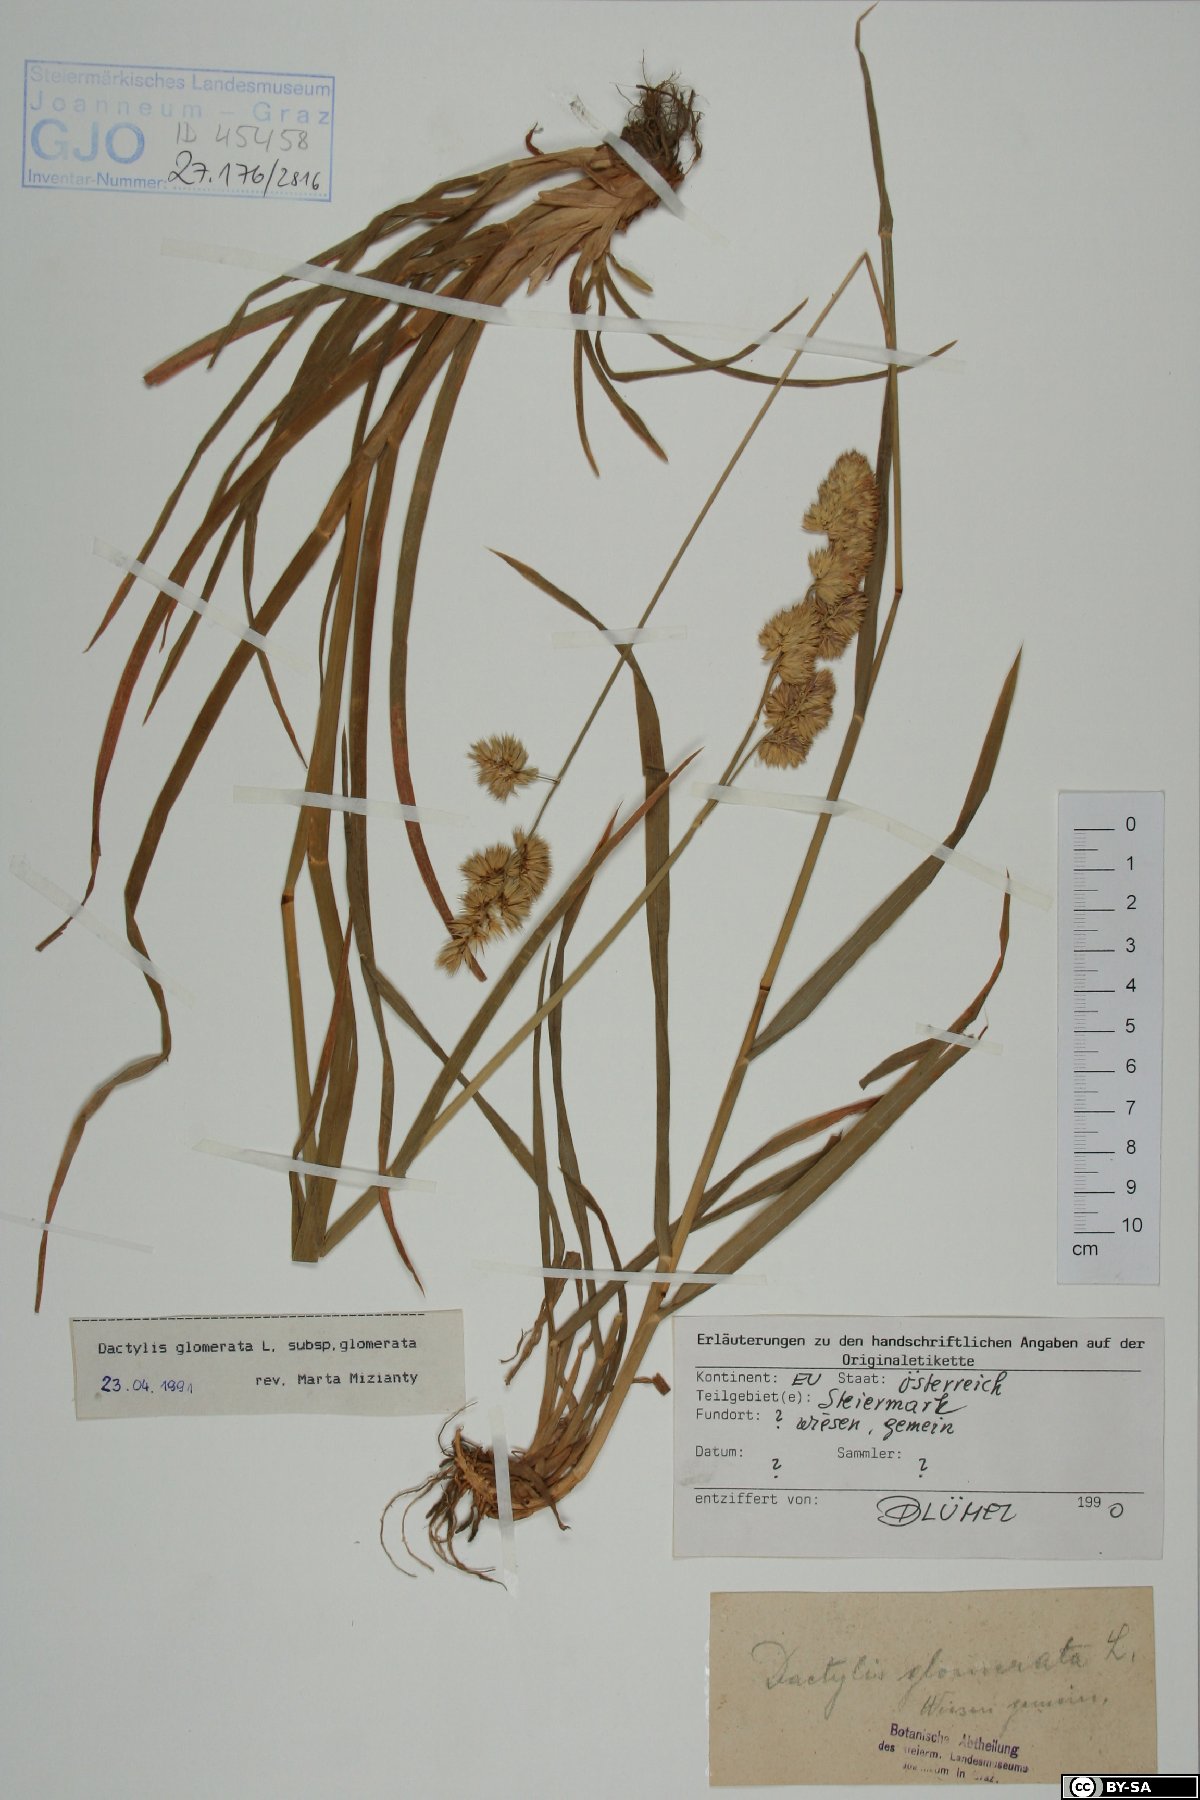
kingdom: Plantae
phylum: Tracheophyta
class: Liliopsida
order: Poales
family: Poaceae
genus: Dactylis
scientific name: Dactylis glomerata
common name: Orchardgrass
